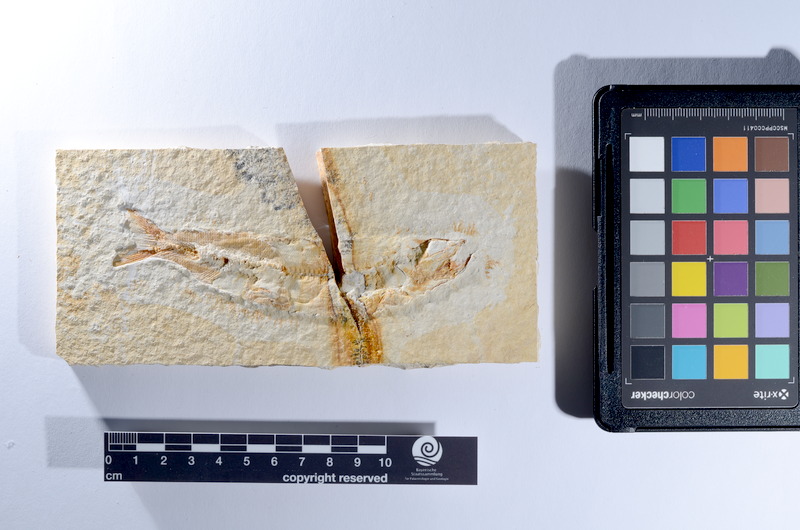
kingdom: Animalia
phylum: Chordata
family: Ascalaboidae
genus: Tharsis
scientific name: Tharsis dubius
